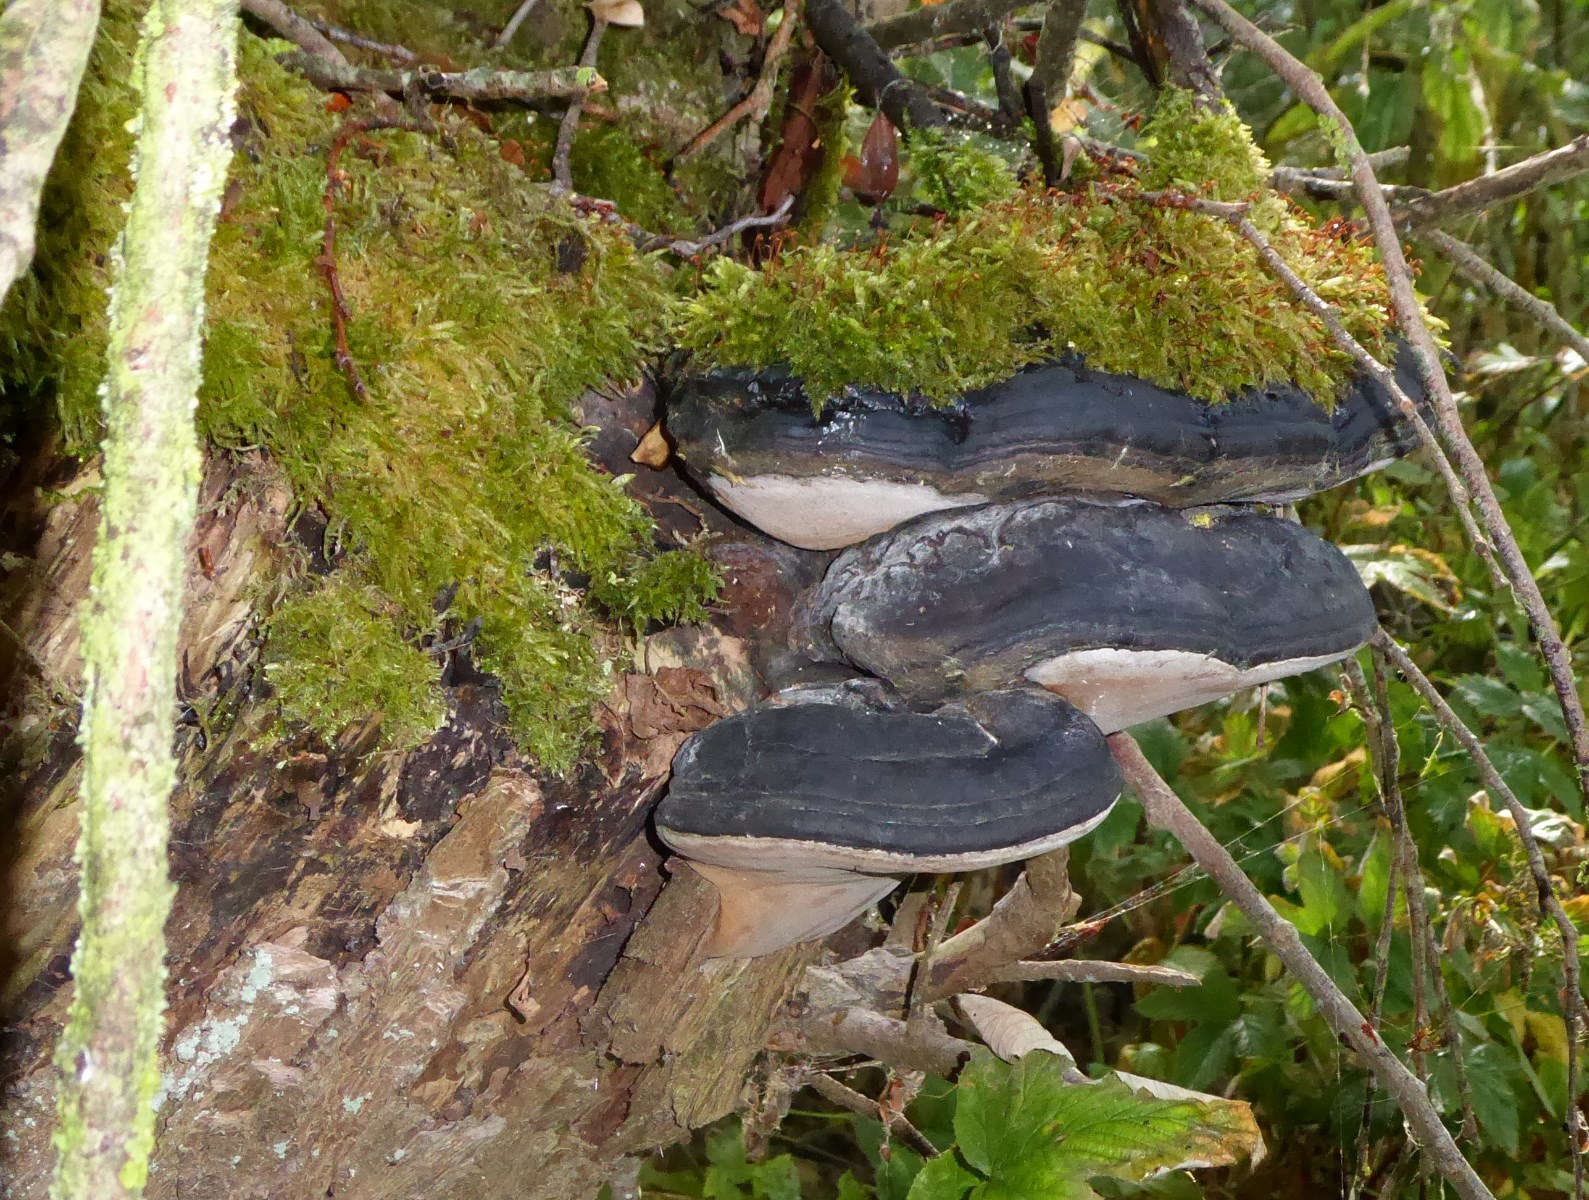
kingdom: Fungi
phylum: Basidiomycota
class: Agaricomycetes
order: Hymenochaetales
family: Hymenochaetaceae
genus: Phellinus
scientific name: Phellinus igniarius
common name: almindelig ildporesvamp
